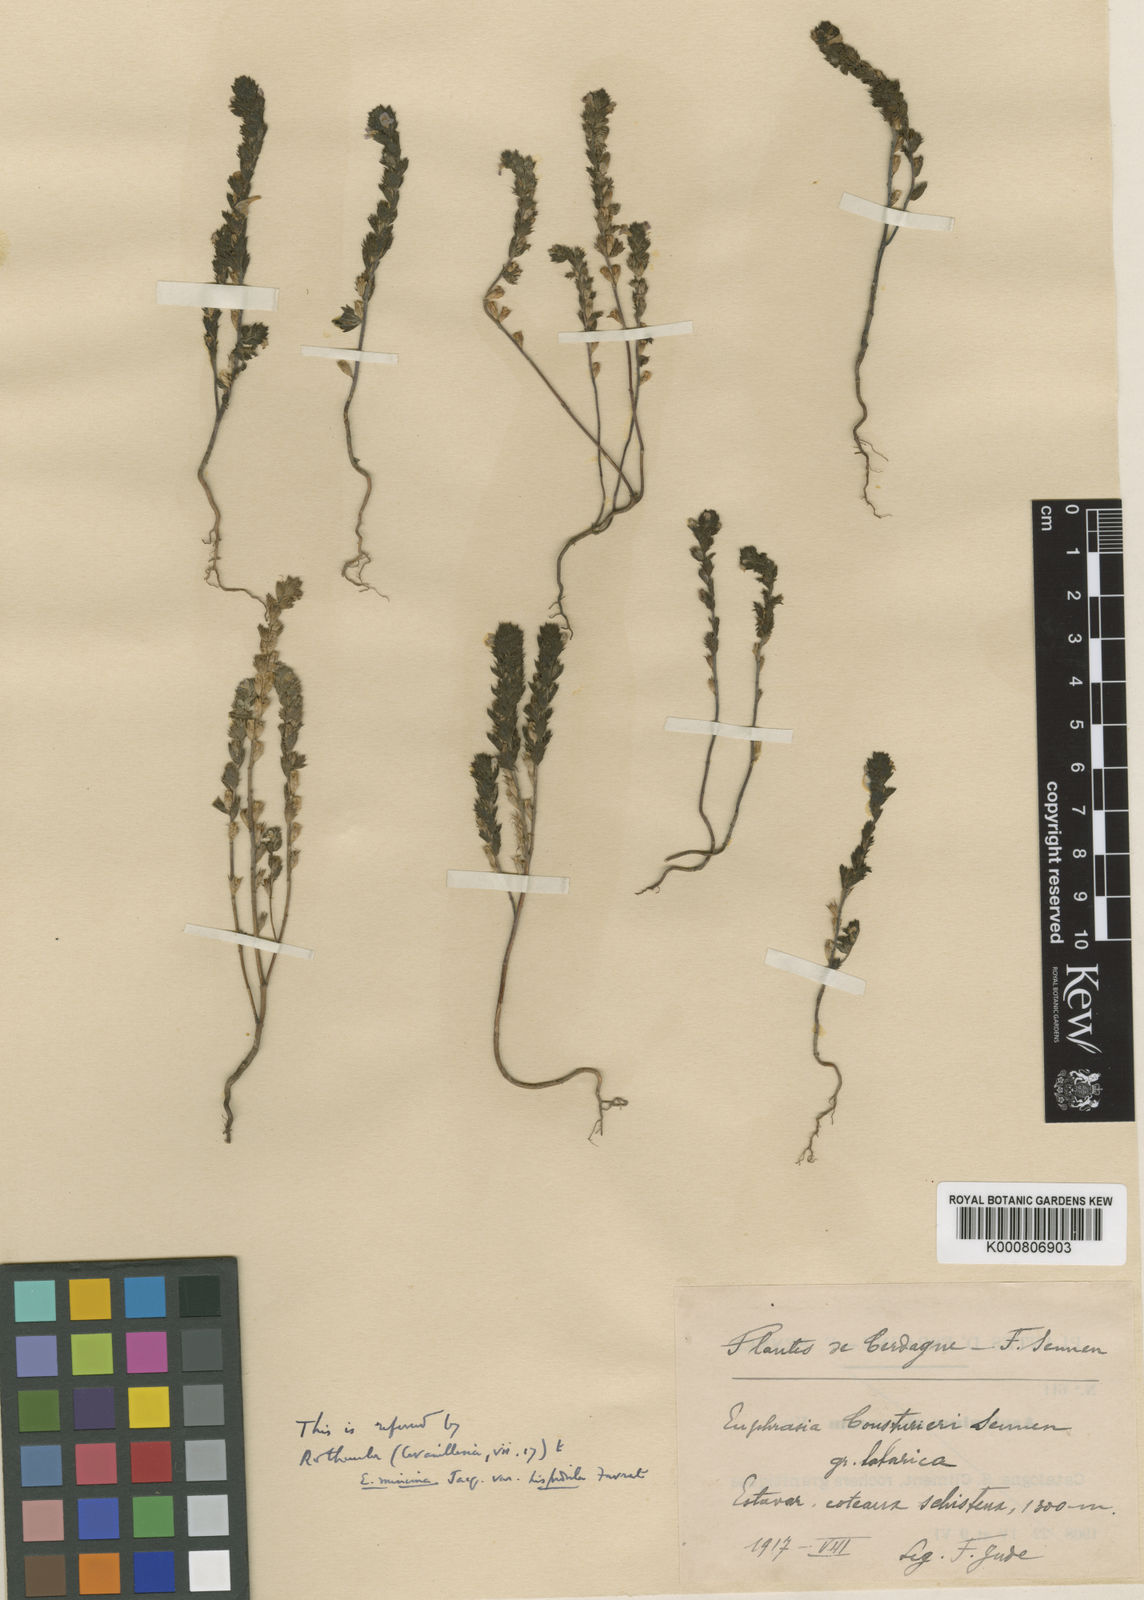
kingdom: Plantae
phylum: Tracheophyta
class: Magnoliopsida
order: Lamiales
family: Orobanchaceae
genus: Euphrasia
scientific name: Euphrasia pectinata
